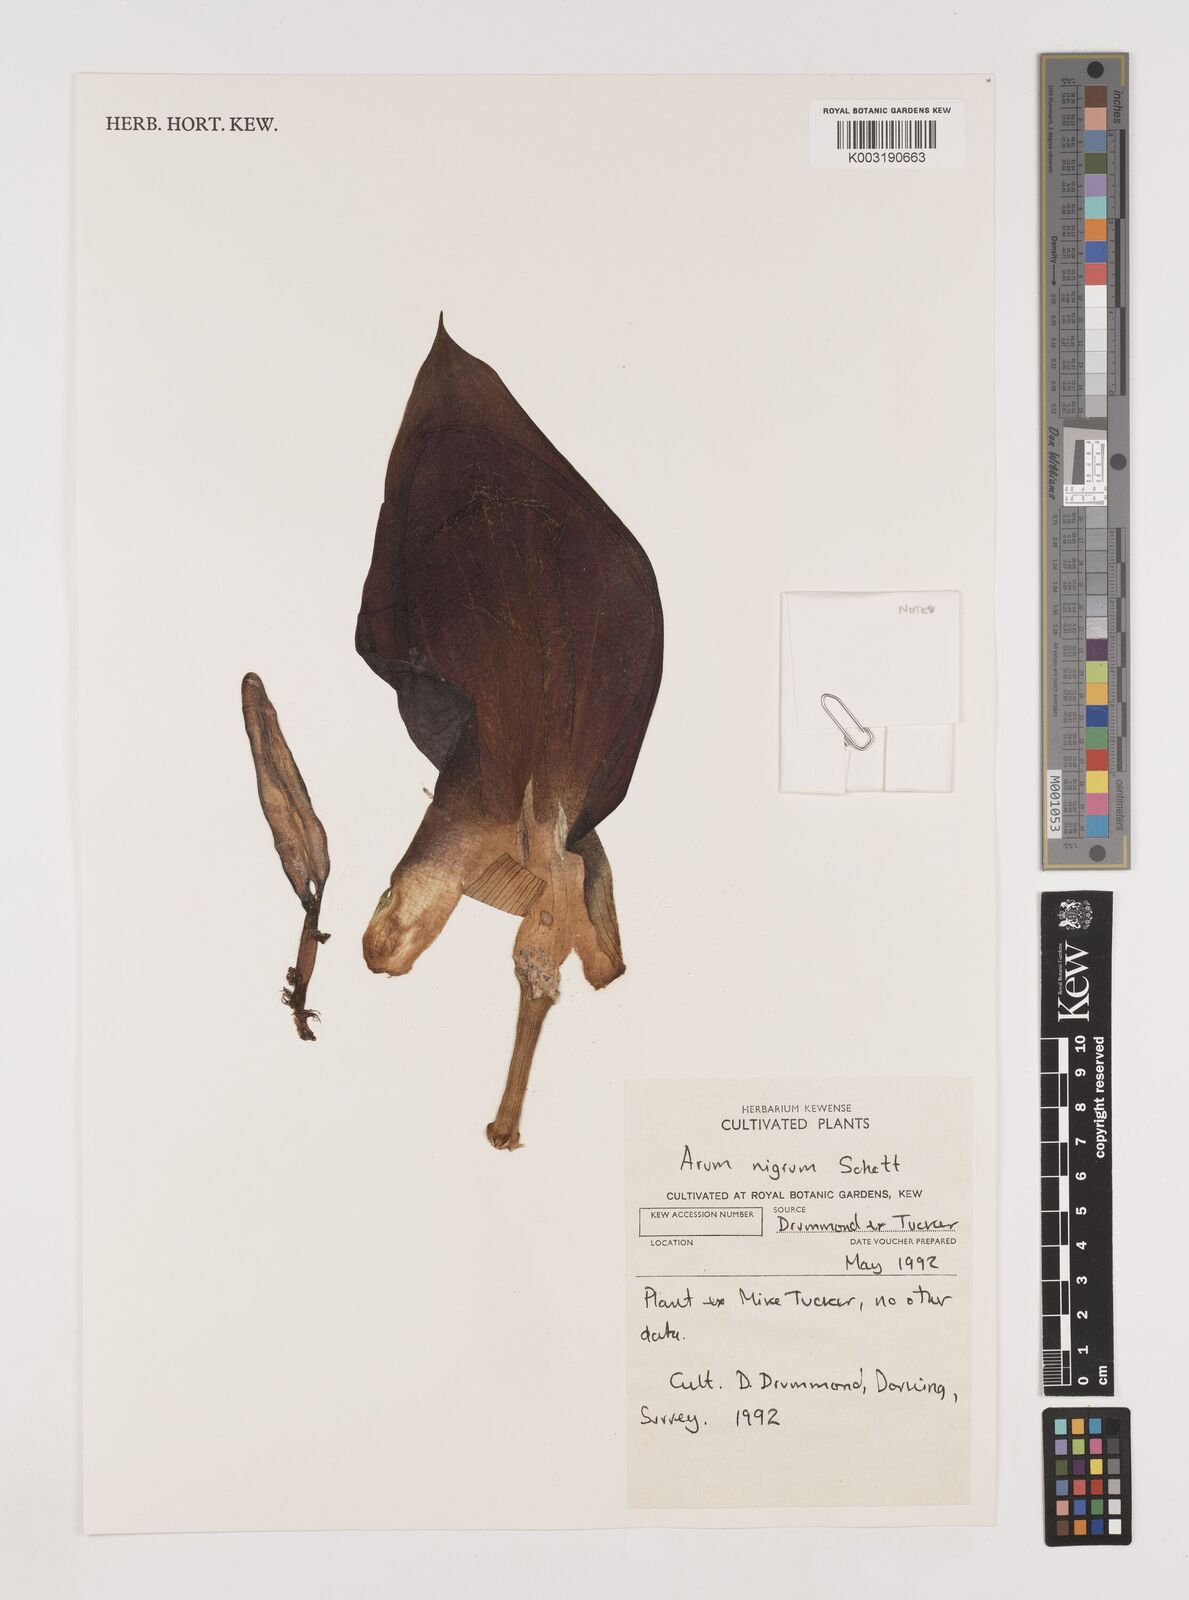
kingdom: Plantae
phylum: Tracheophyta
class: Liliopsida
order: Alismatales
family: Araceae
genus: Arum
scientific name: Arum nigrum
